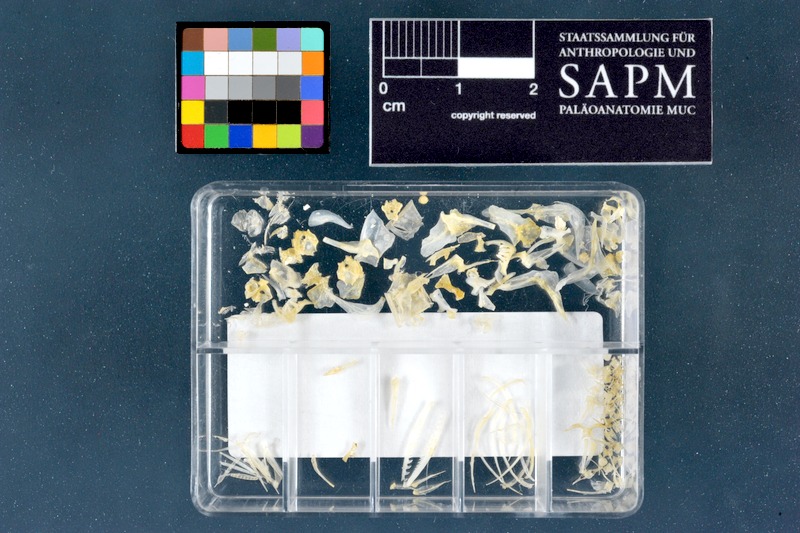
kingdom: Animalia
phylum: Chordata
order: Cypriniformes
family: Cyprinidae
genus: Cyprinion
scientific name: Cyprinion kais
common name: Smallmouth lotak
